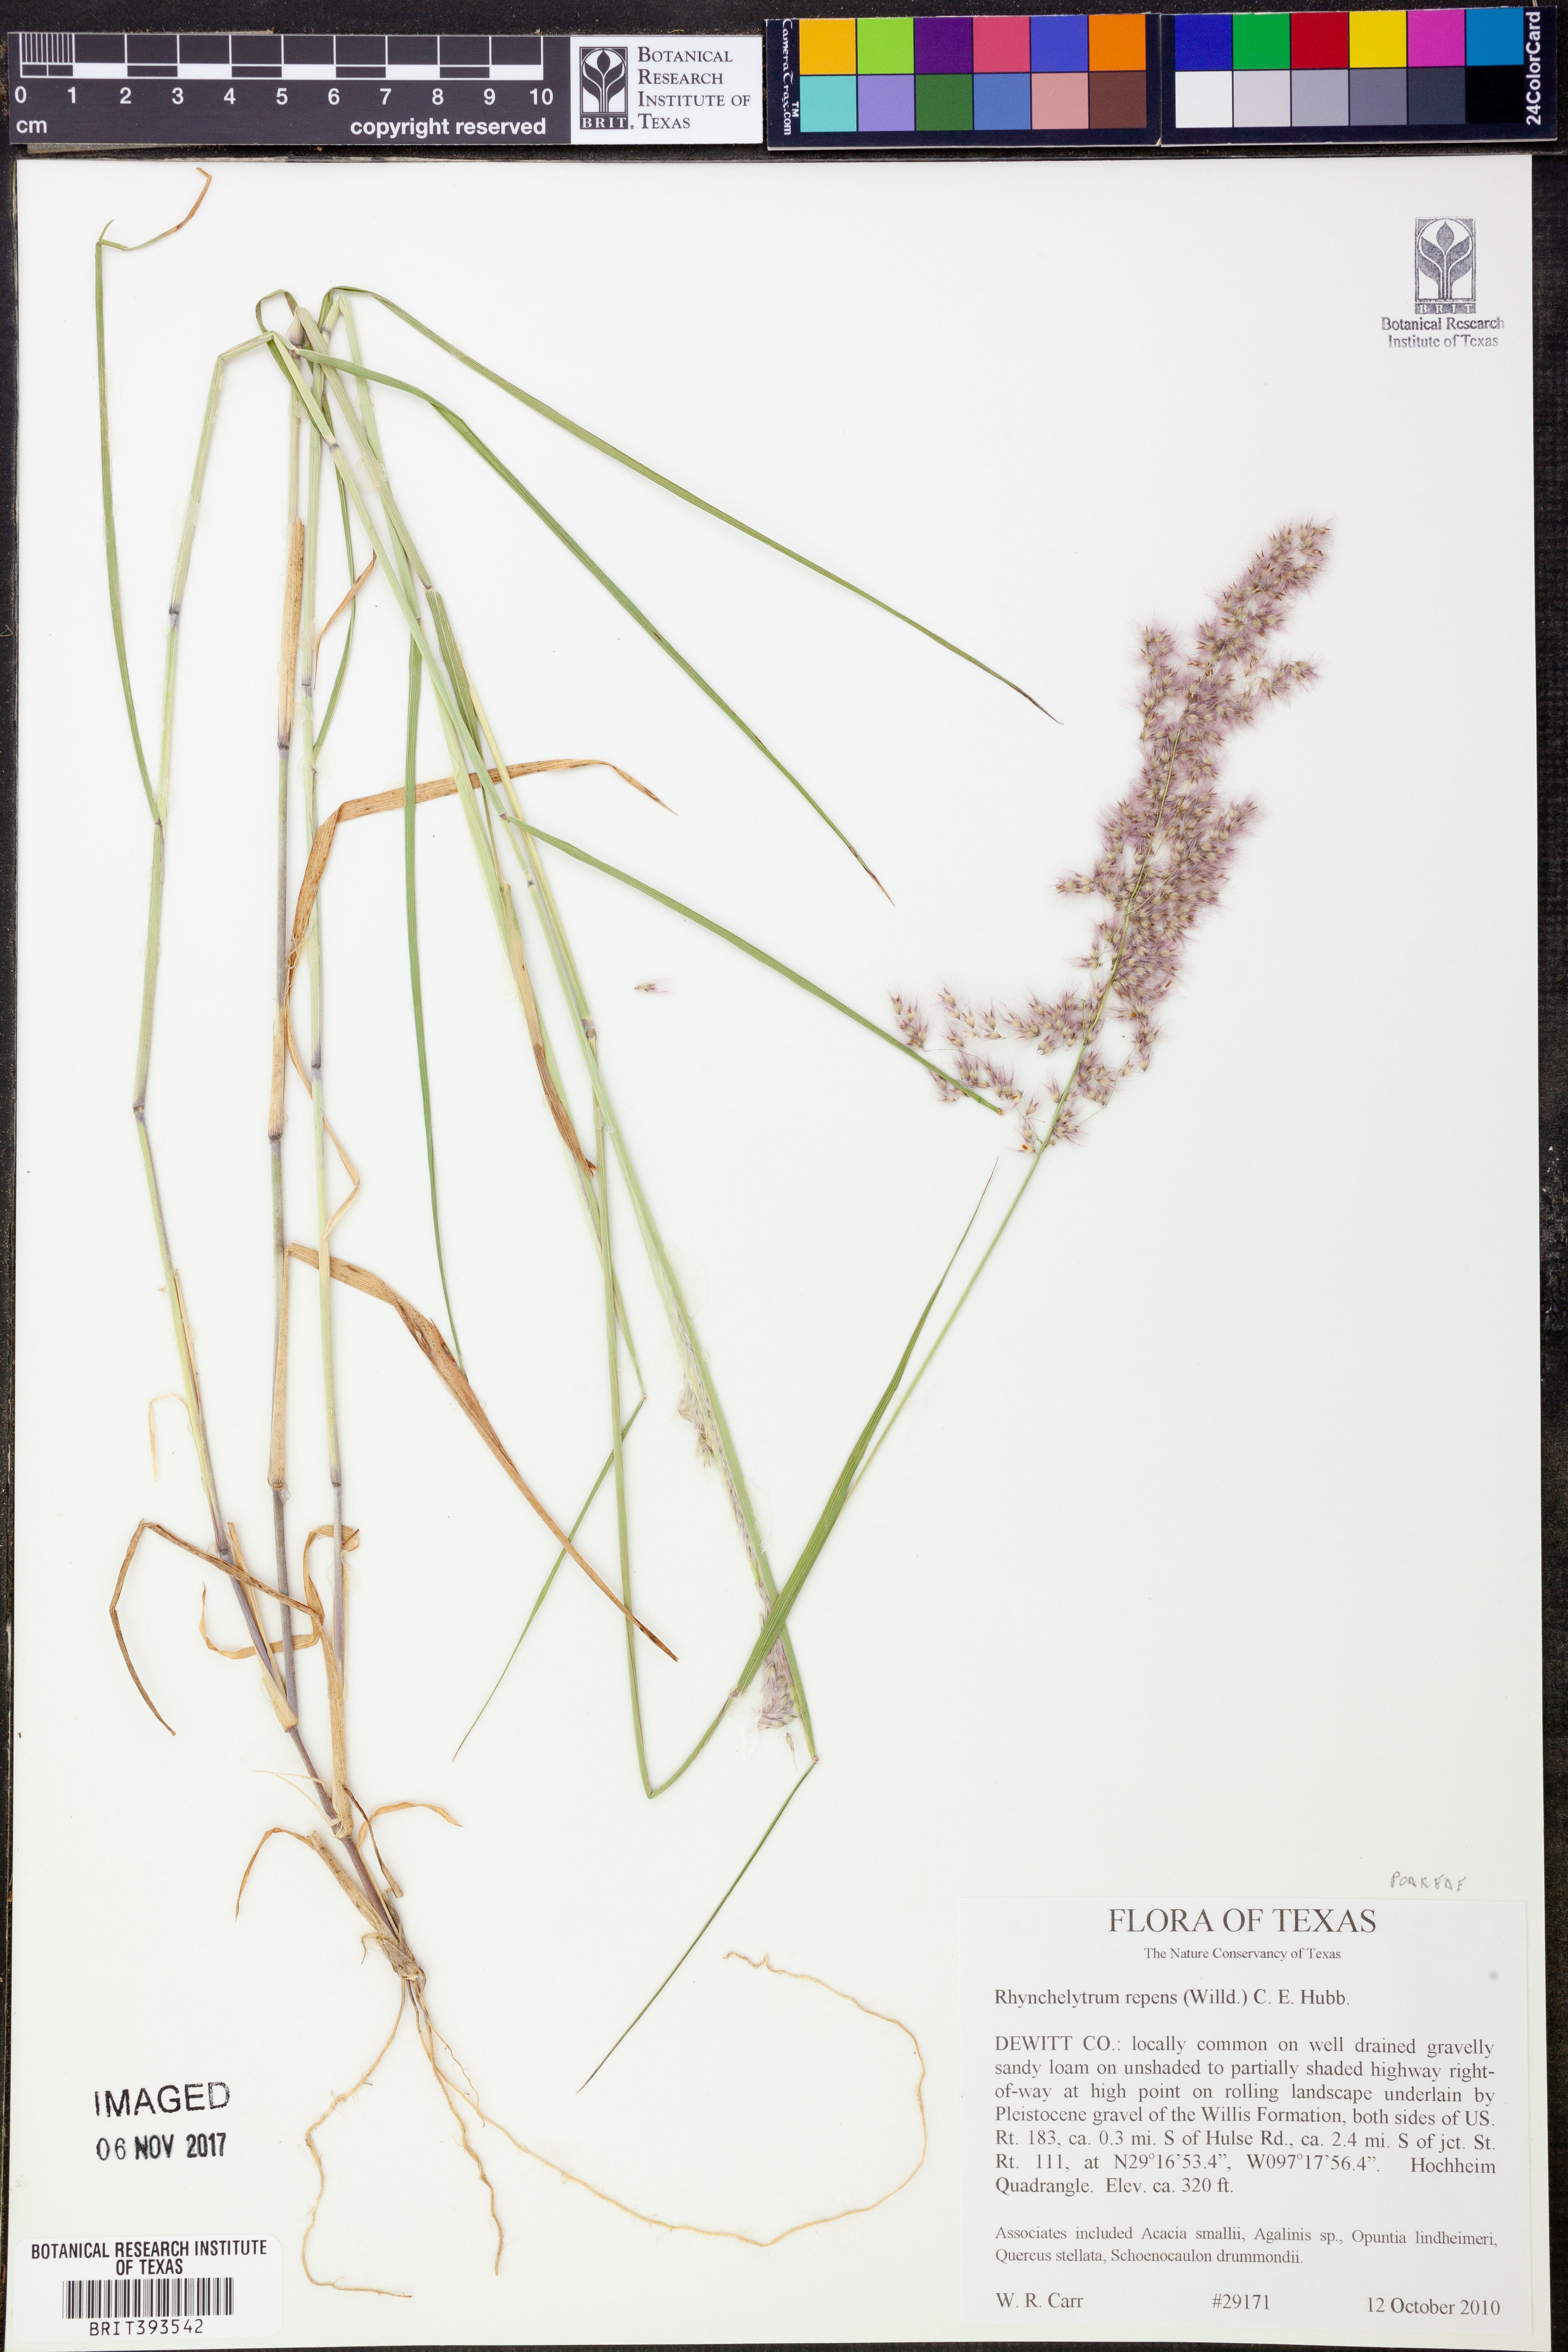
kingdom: Plantae
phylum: Tracheophyta
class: Liliopsida
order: Poales
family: Poaceae
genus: Melinis
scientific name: Melinis repens
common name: Rose natal grass
